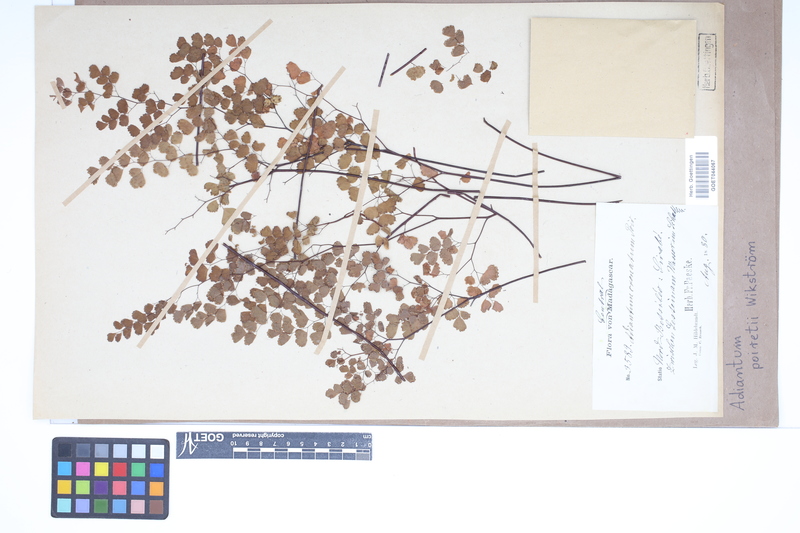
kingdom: Plantae
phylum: Tracheophyta
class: Polypodiopsida
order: Polypodiales
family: Pteridaceae
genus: Adiantum
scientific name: Adiantum poiretii
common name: Mexican maidenhair
